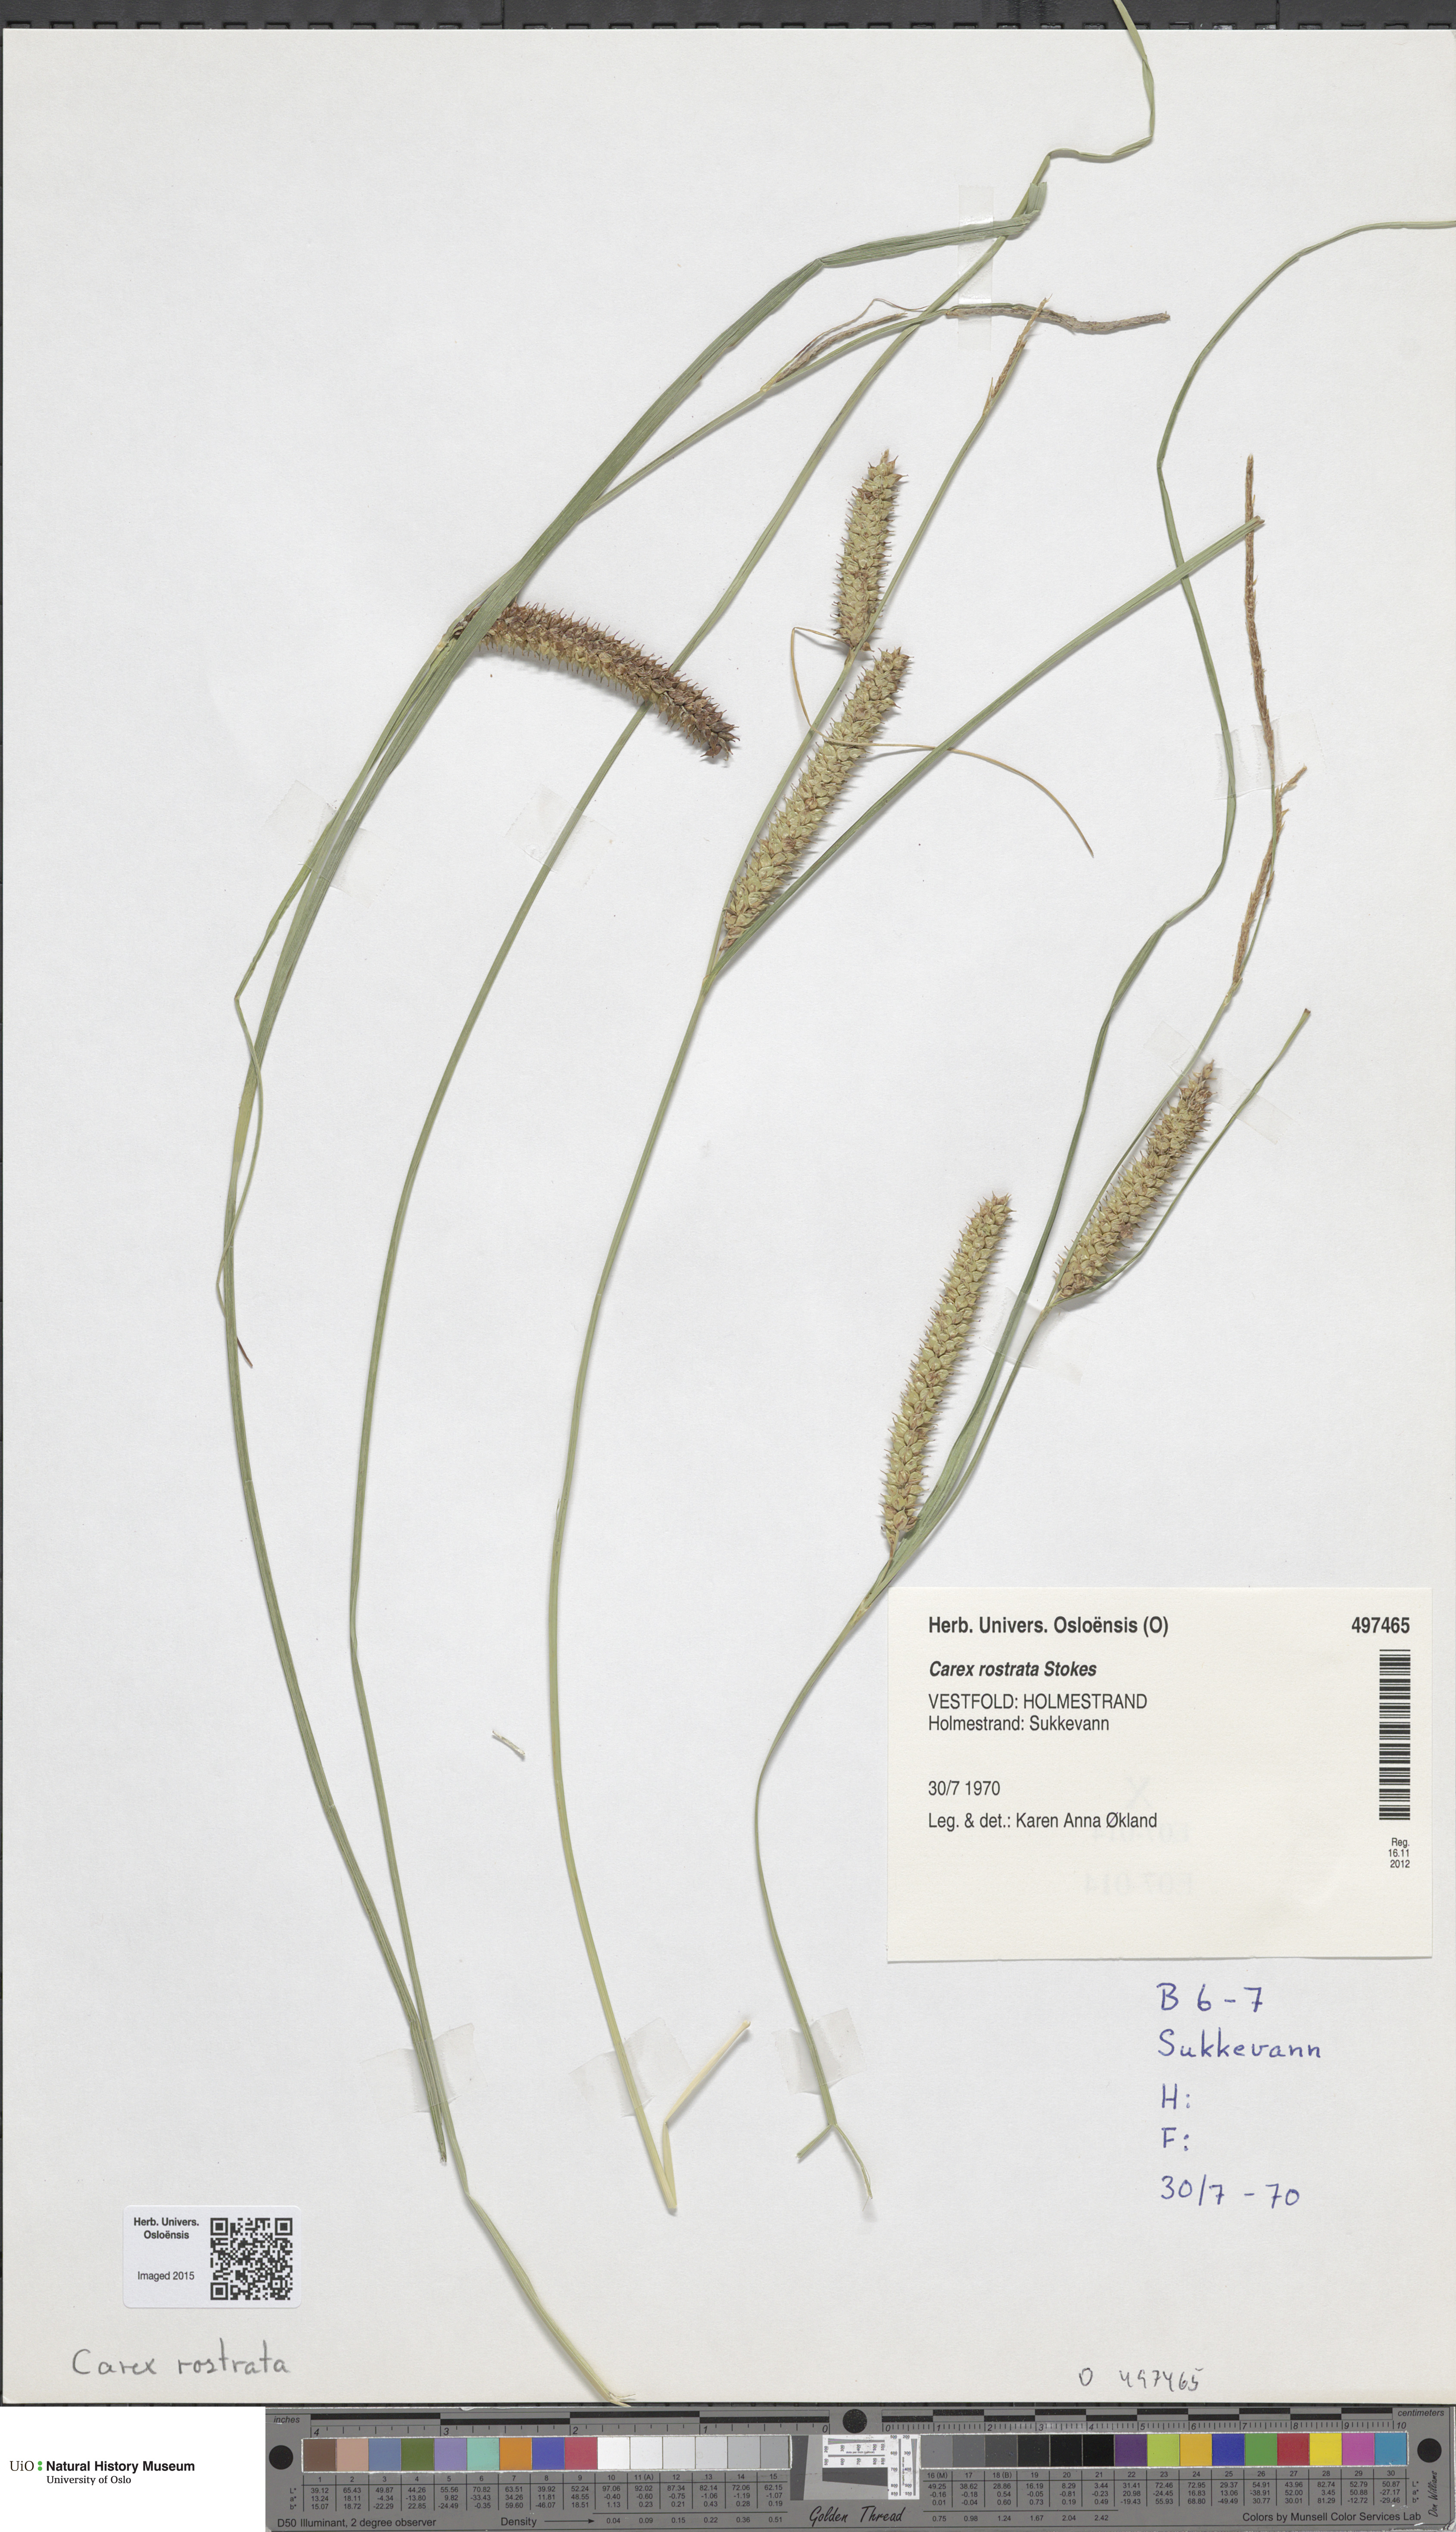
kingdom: Plantae
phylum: Tracheophyta
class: Liliopsida
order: Poales
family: Cyperaceae
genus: Carex
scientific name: Carex rostrata
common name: Bottle sedge
